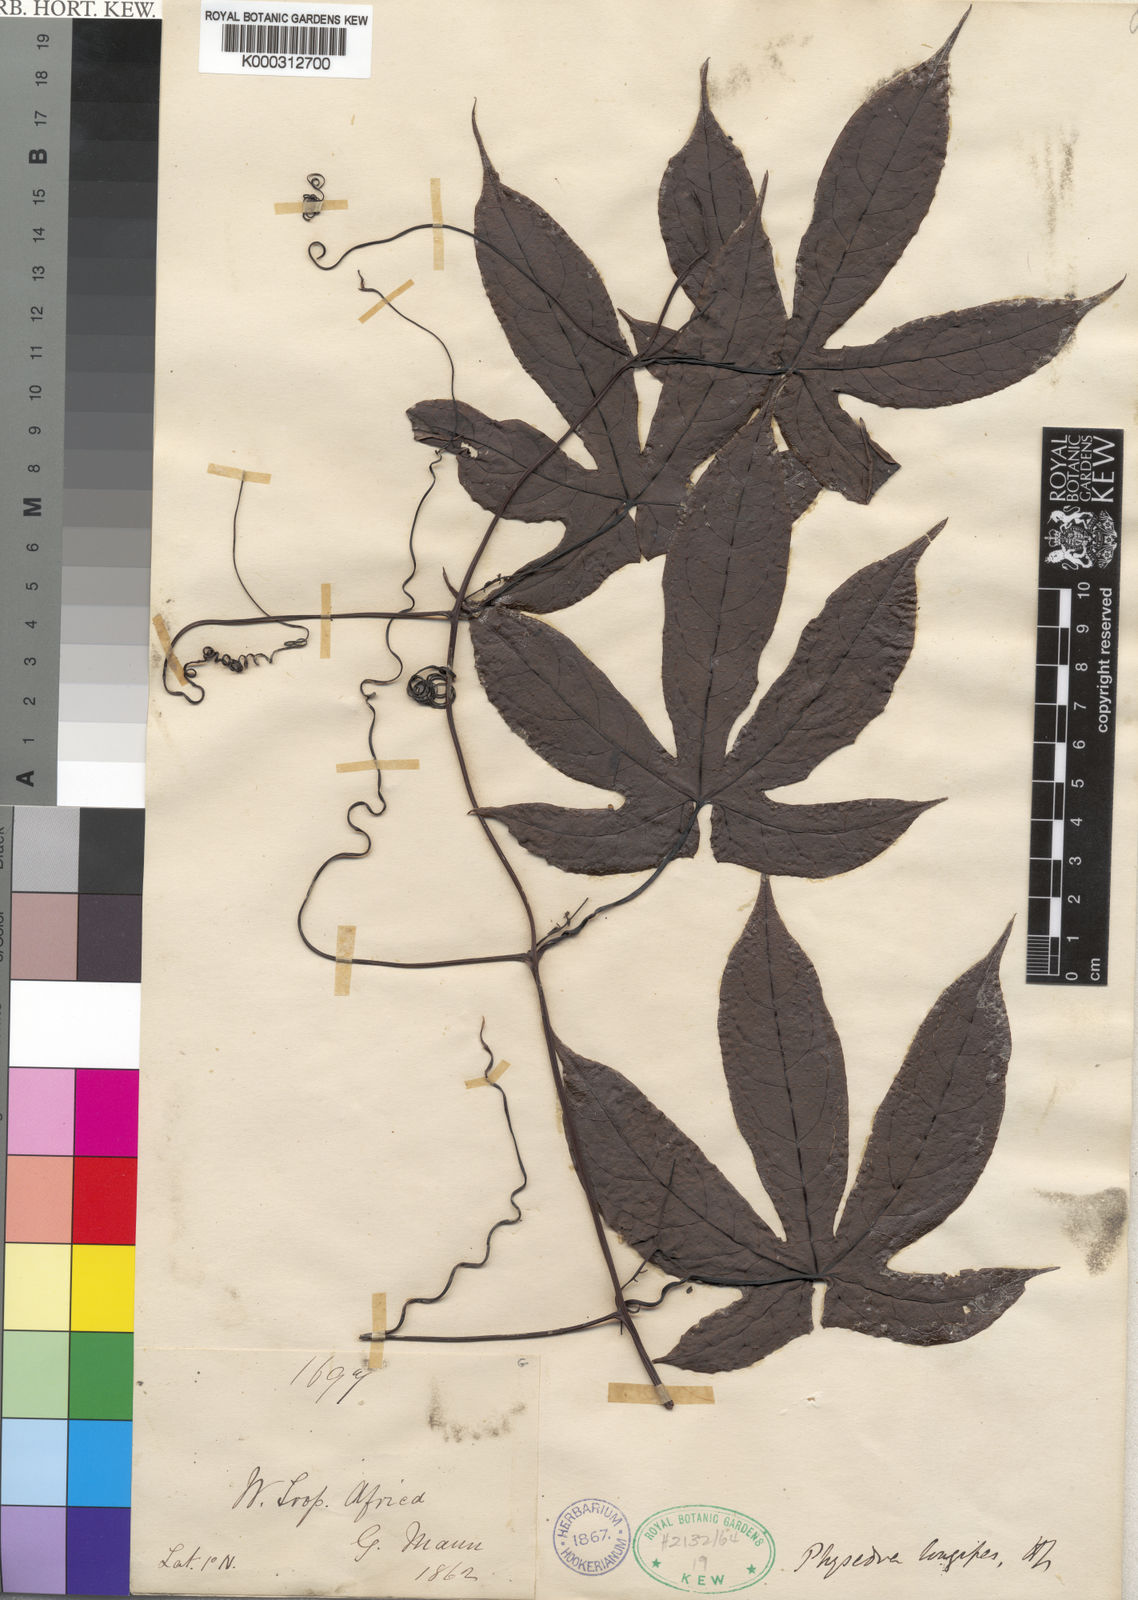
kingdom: Plantae
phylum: Tracheophyta
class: Magnoliopsida
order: Cucurbitales
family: Cucurbitaceae
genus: Ruthalicia
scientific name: Ruthalicia longipes
